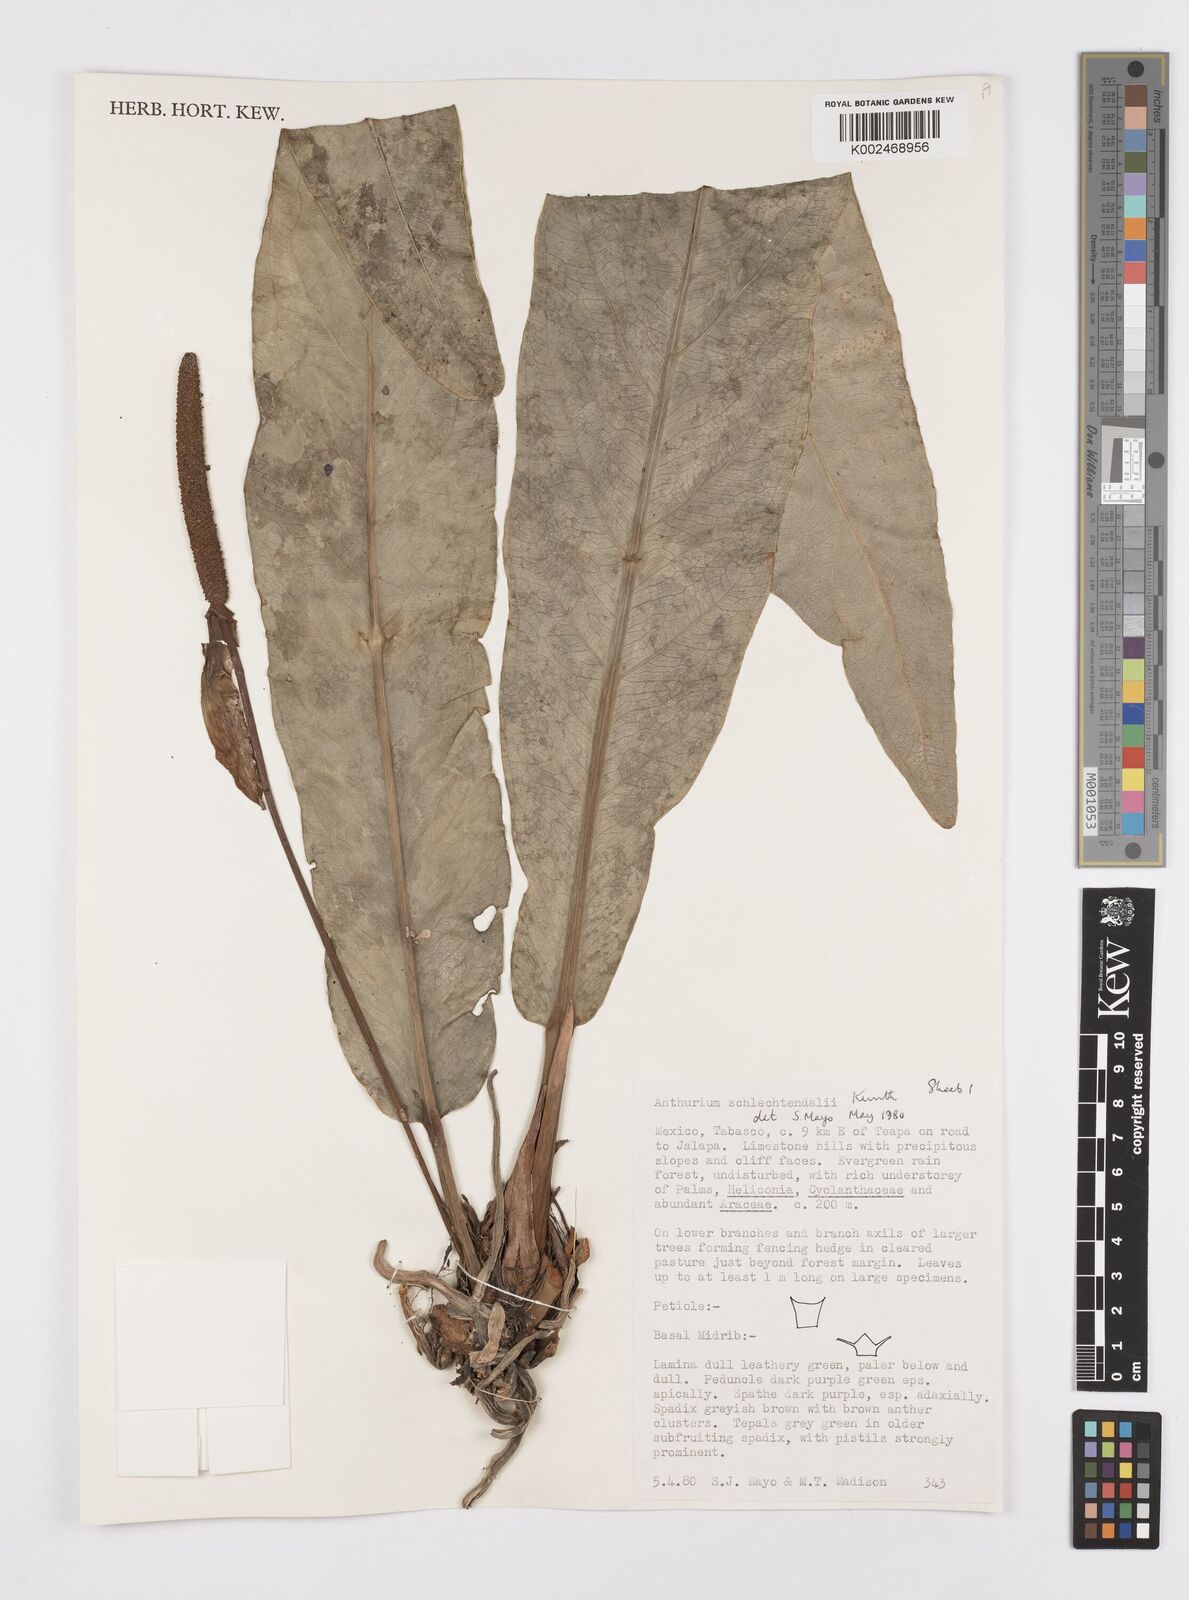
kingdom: Plantae
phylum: Tracheophyta
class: Liliopsida
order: Alismatales
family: Araceae
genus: Anthurium
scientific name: Anthurium schlechtendalii
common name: Laceleaf
